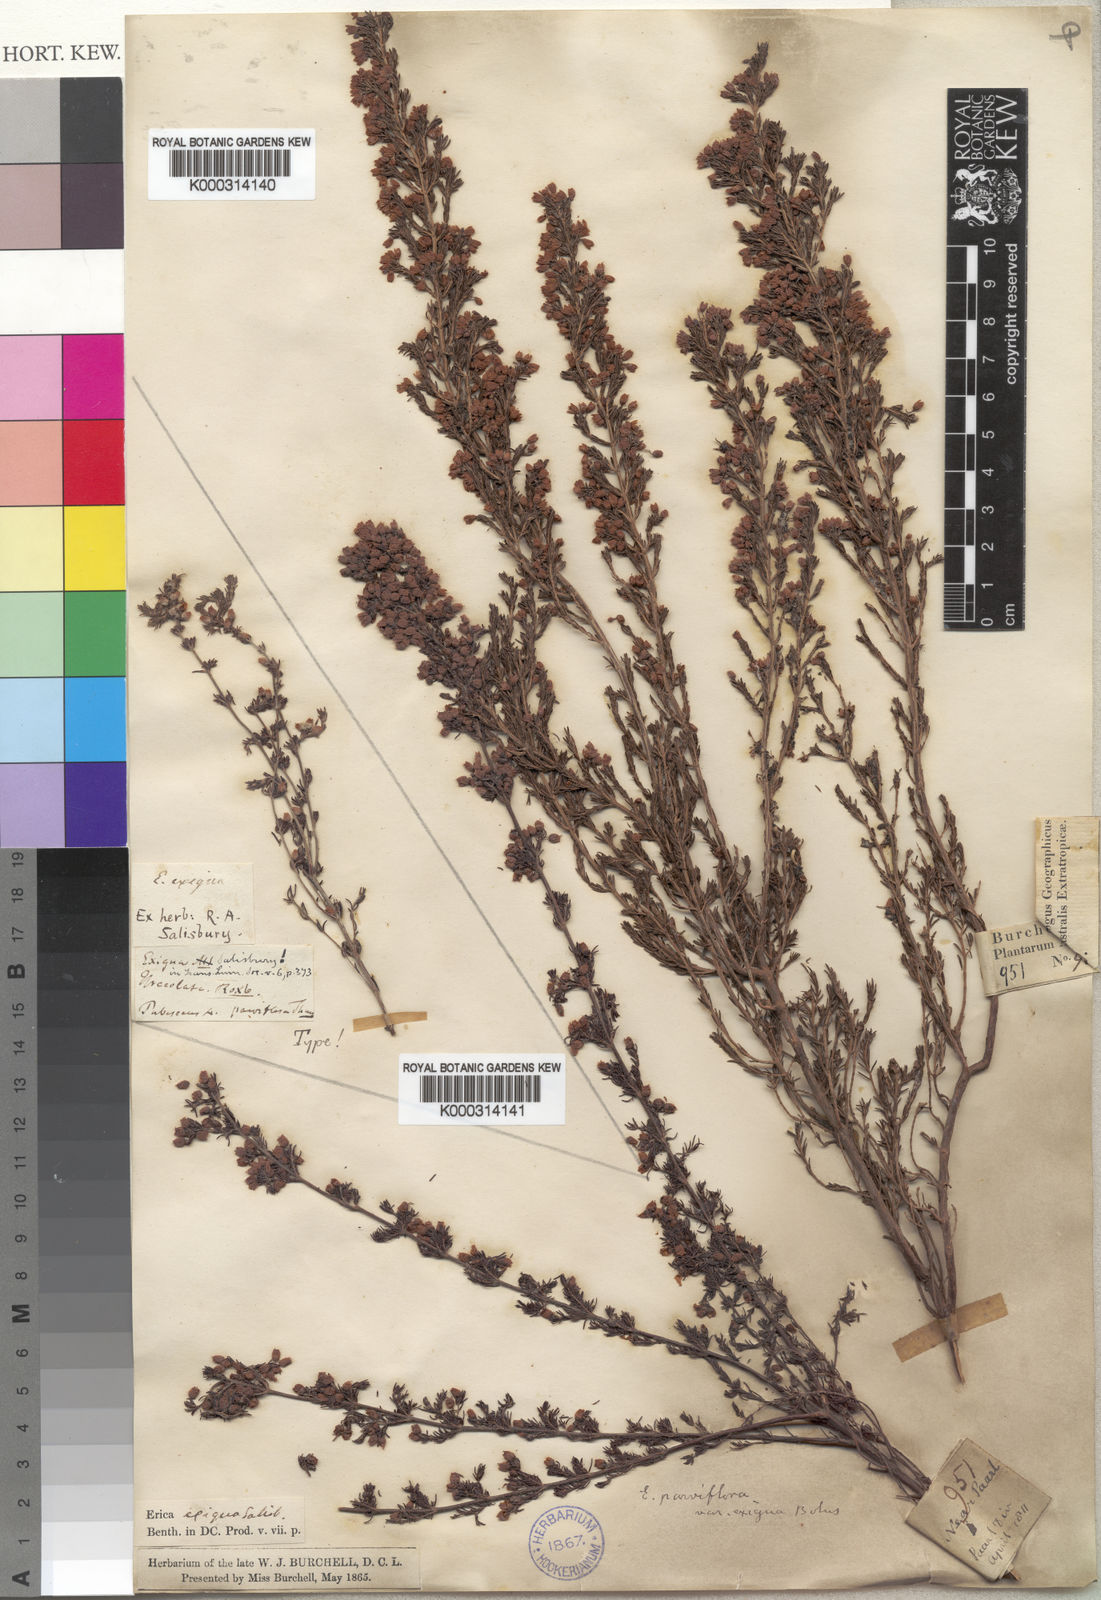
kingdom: Plantae
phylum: Tracheophyta
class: Magnoliopsida
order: Ericales
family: Ericaceae
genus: Erica
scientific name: Erica parviflora
